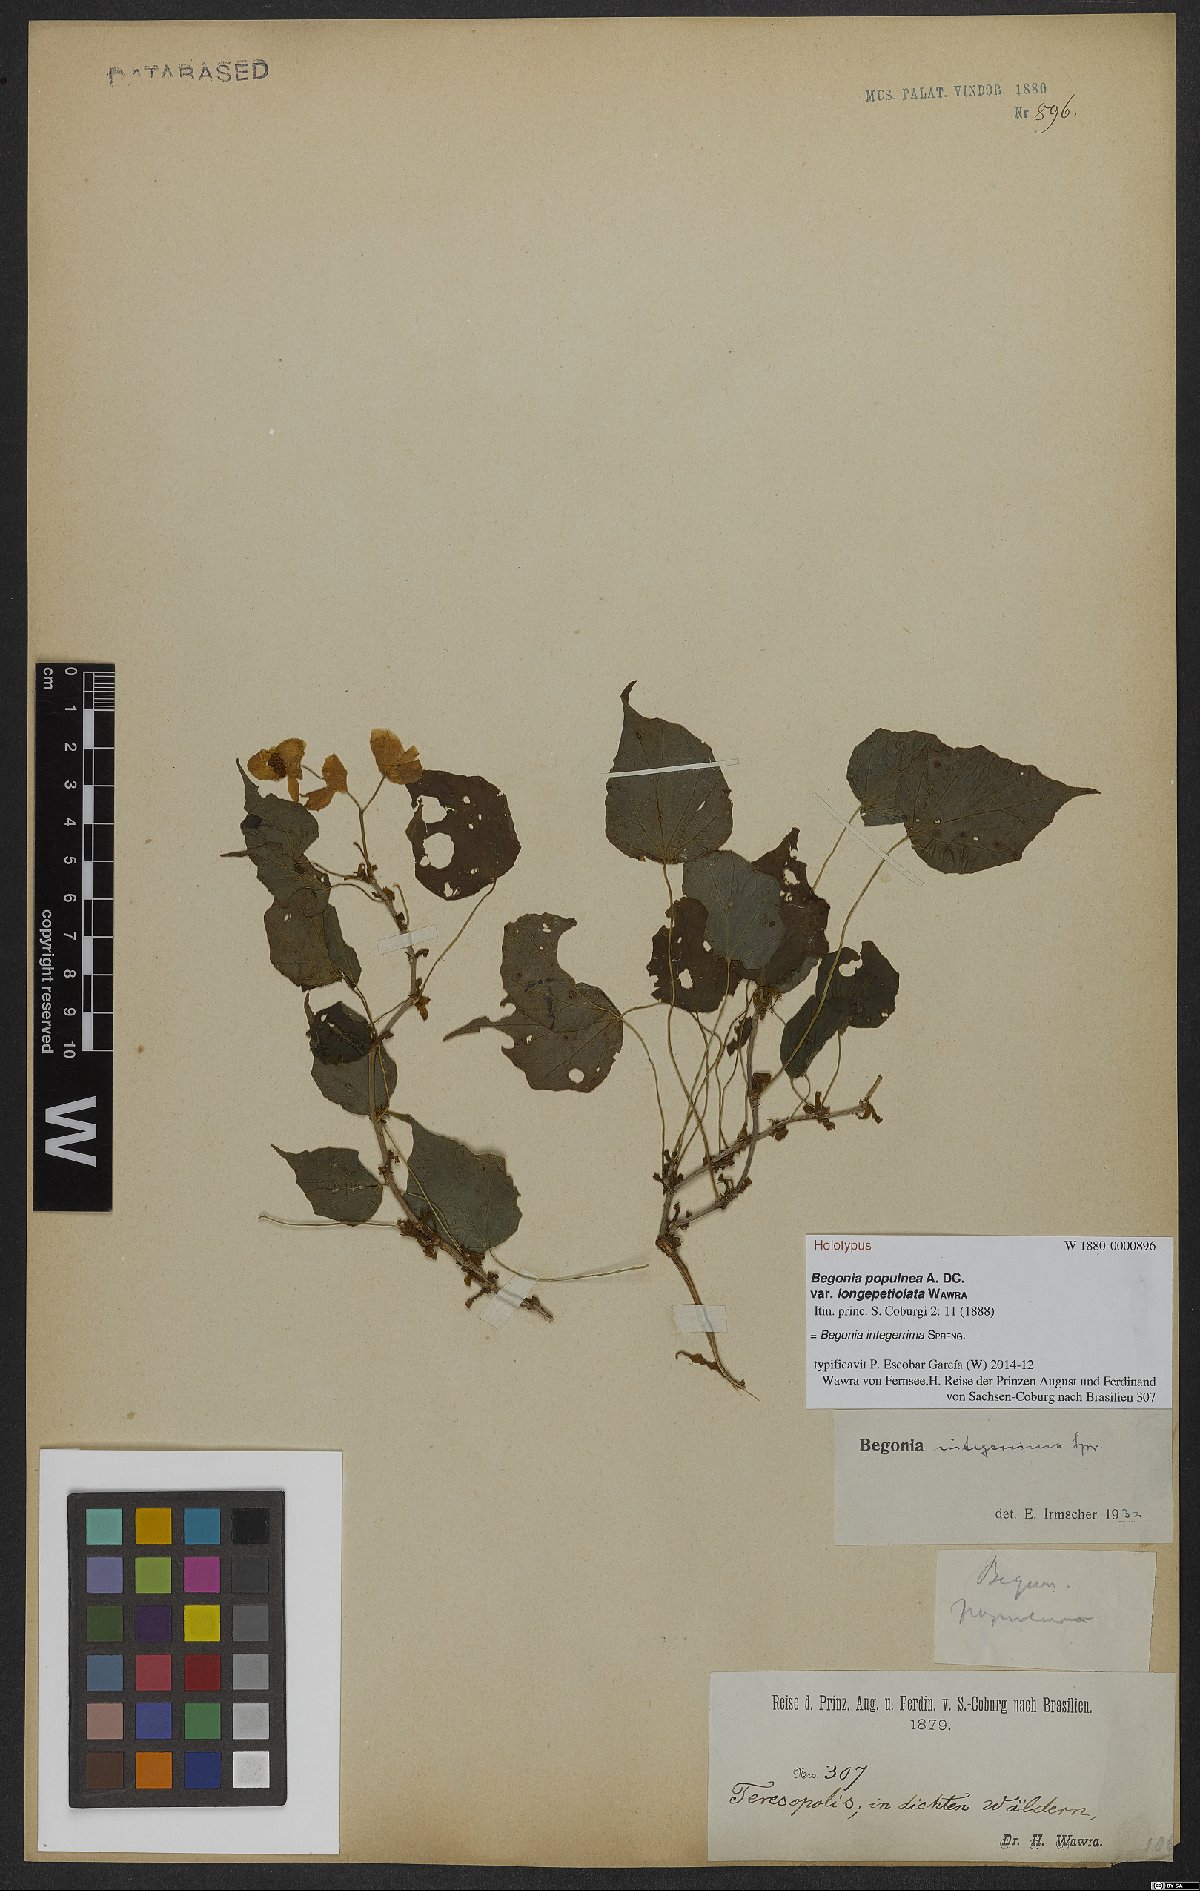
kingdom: Plantae
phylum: Tracheophyta
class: Magnoliopsida
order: Cucurbitales
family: Begoniaceae
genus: Begonia
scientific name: Begonia integerrima
